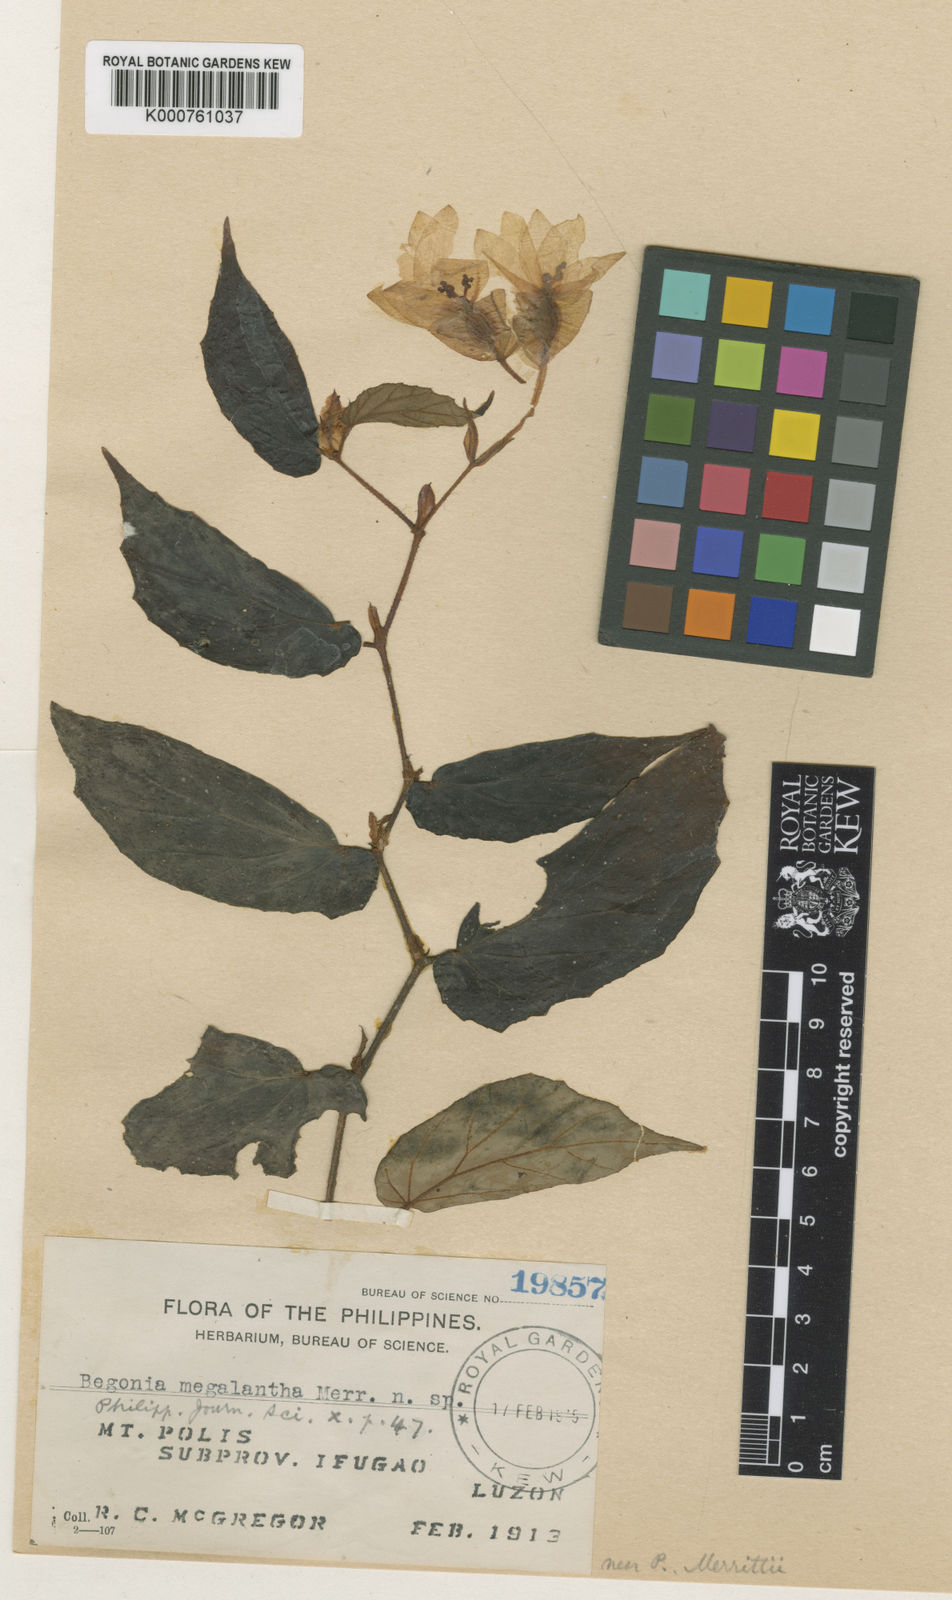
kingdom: Plantae
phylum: Tracheophyta
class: Magnoliopsida
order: Cucurbitales
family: Begoniaceae
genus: Begonia
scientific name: Begonia megalantha
